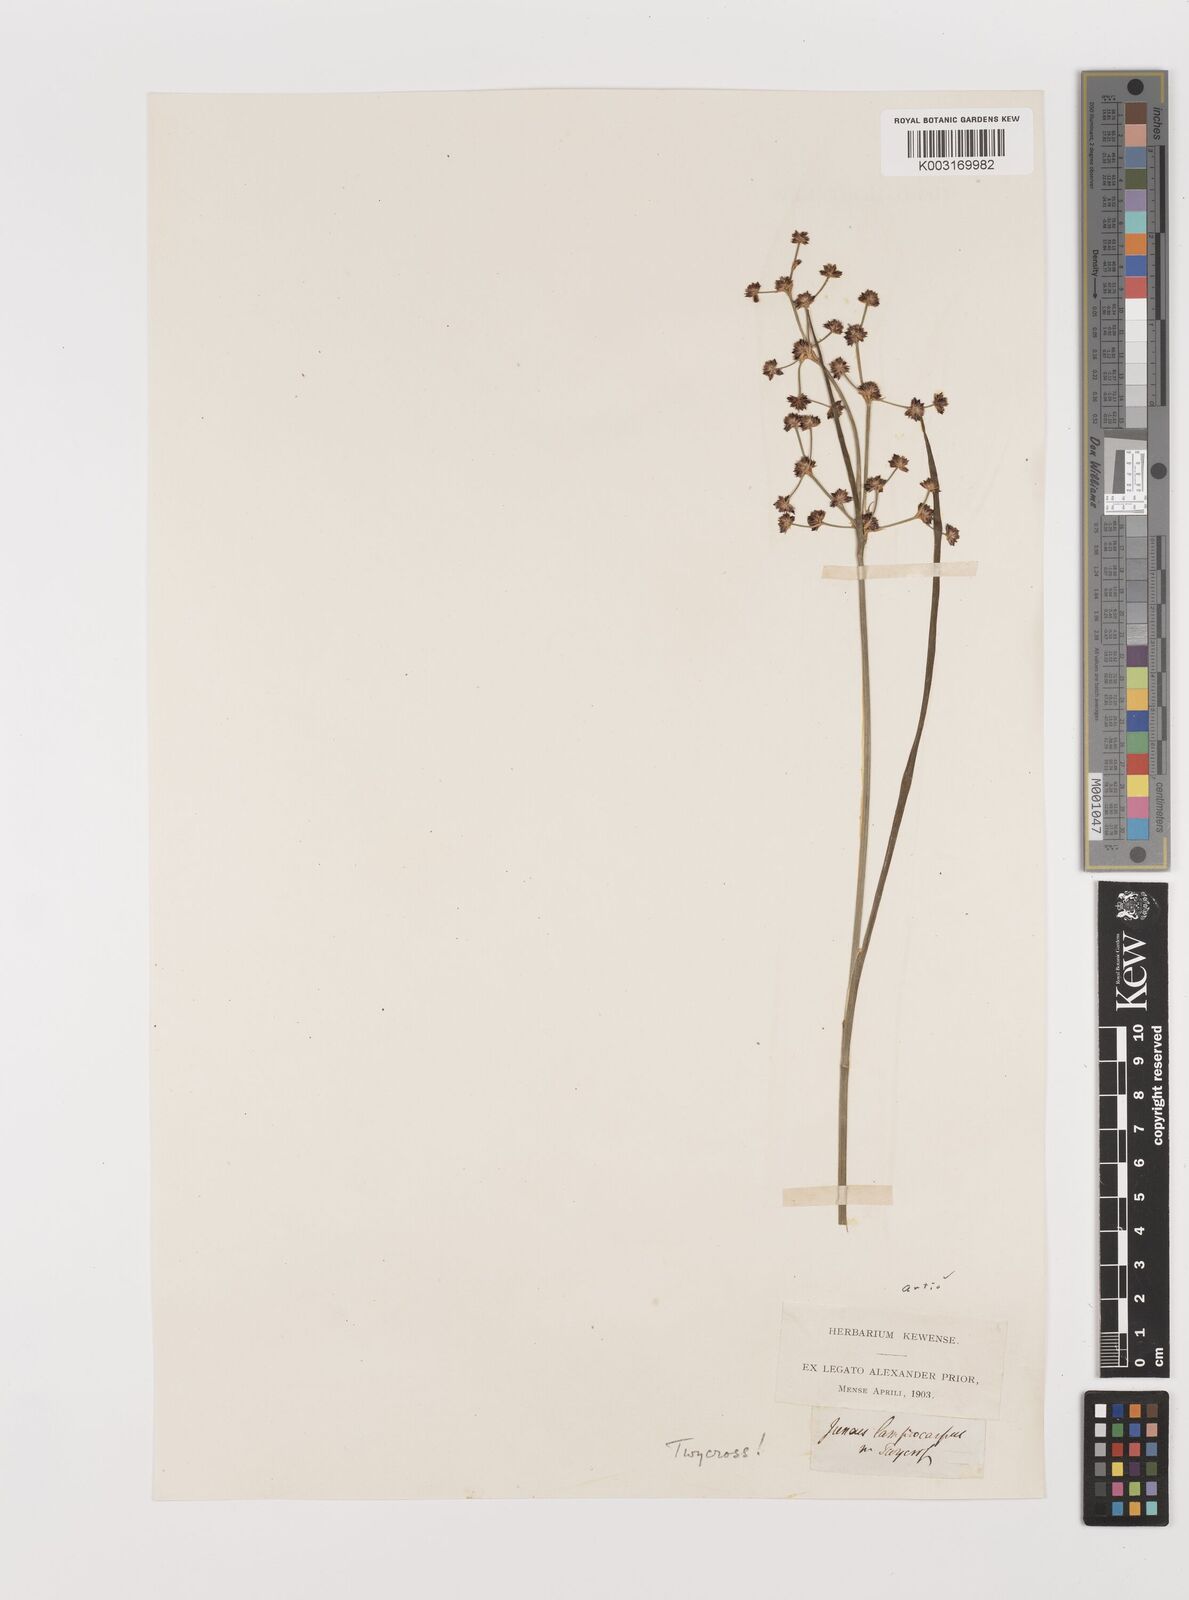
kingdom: Plantae
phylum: Tracheophyta
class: Liliopsida
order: Poales
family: Juncaceae
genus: Juncus
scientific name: Juncus articulatus
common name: Jointed rush
